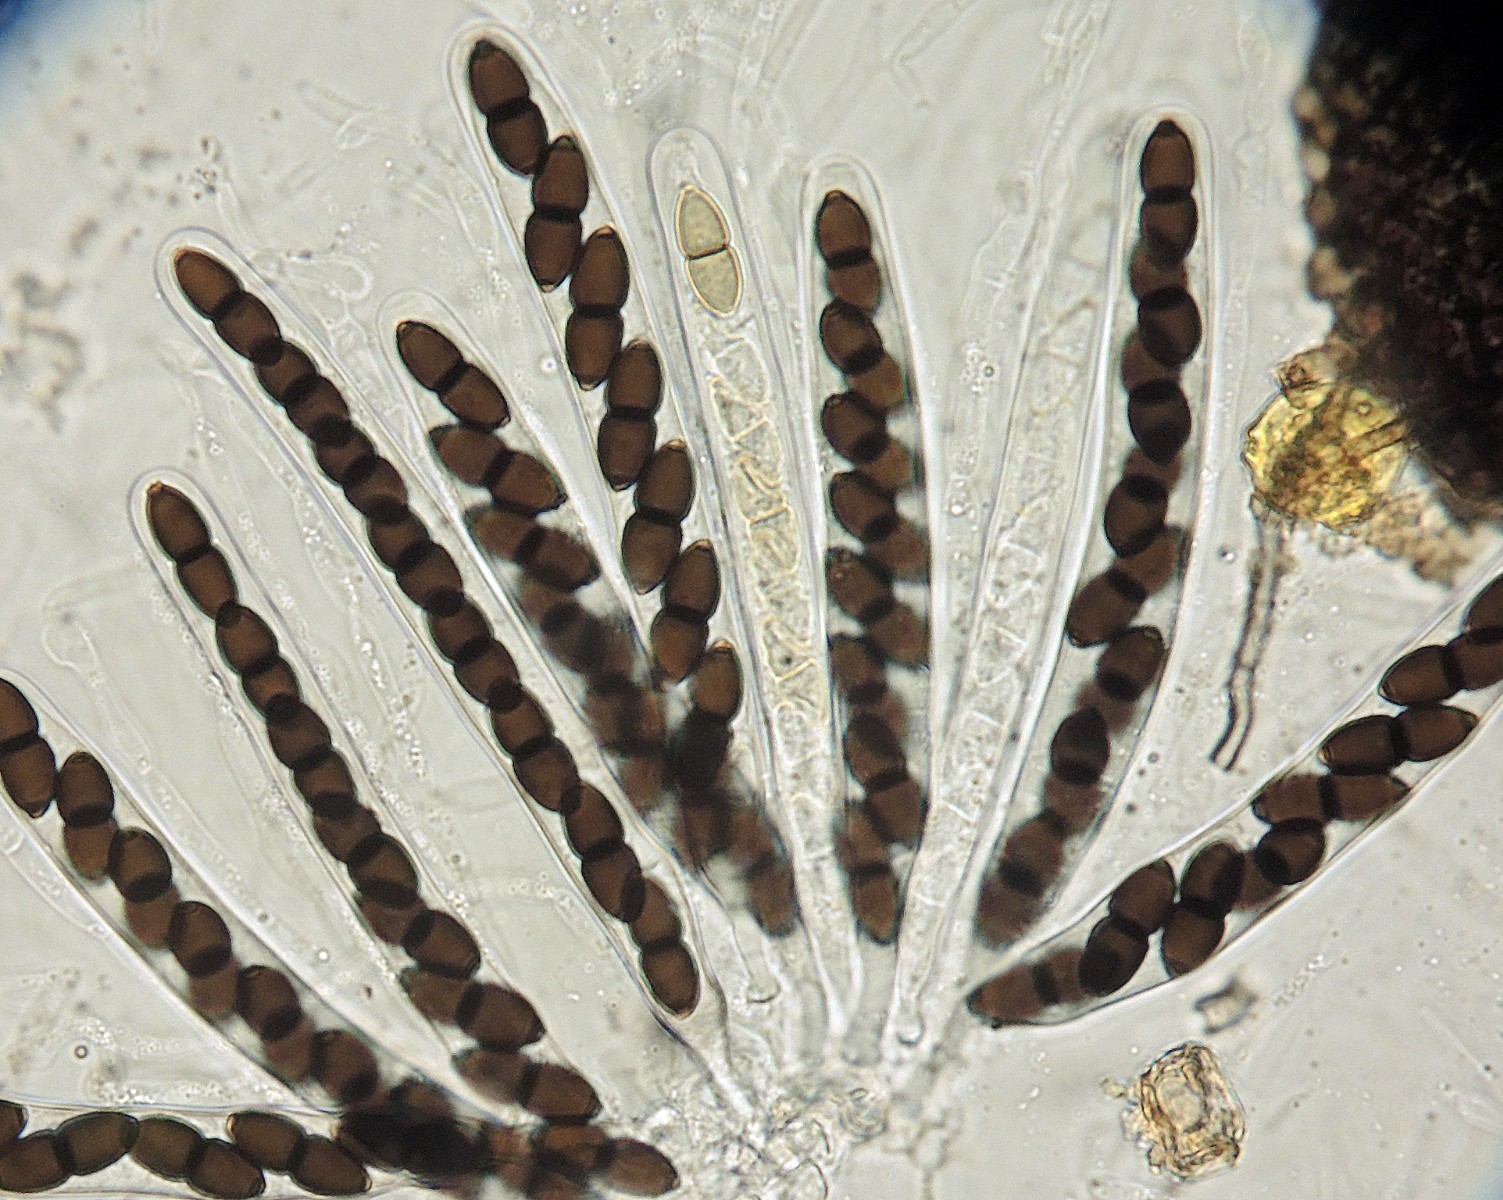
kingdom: Fungi
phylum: Ascomycota
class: Dothideomycetes
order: Phaeotrichales
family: Phaeotrichaceae
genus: Trichodelitschia
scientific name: Trichodelitschia bisporula
